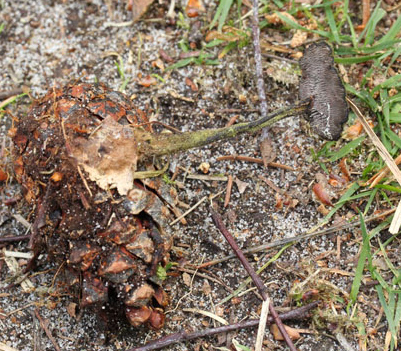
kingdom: Fungi
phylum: Basidiomycota
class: Agaricomycetes
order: Russulales
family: Auriscalpiaceae
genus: Auriscalpium
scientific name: Auriscalpium vulgare
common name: koglepigsvamp
